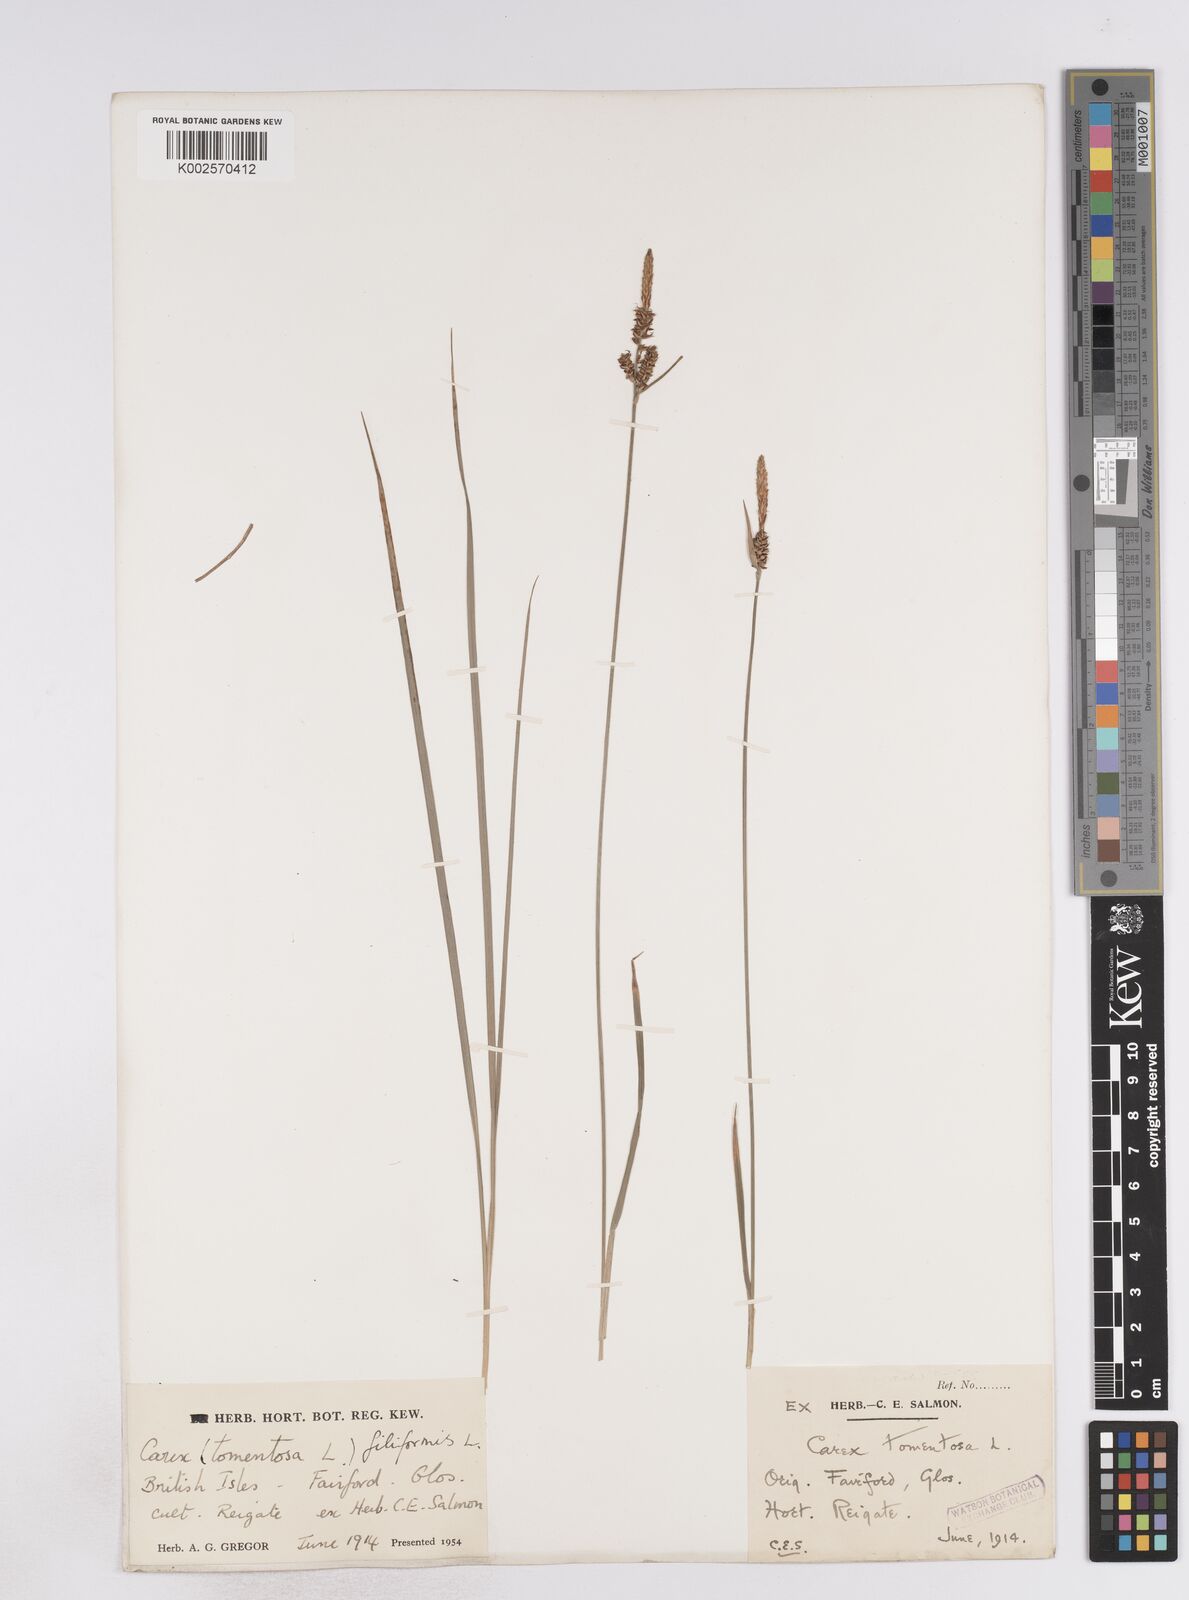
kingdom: Plantae
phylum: Tracheophyta
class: Liliopsida
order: Poales
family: Cyperaceae
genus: Carex
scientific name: Carex montana
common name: Soft-leaved sedge
